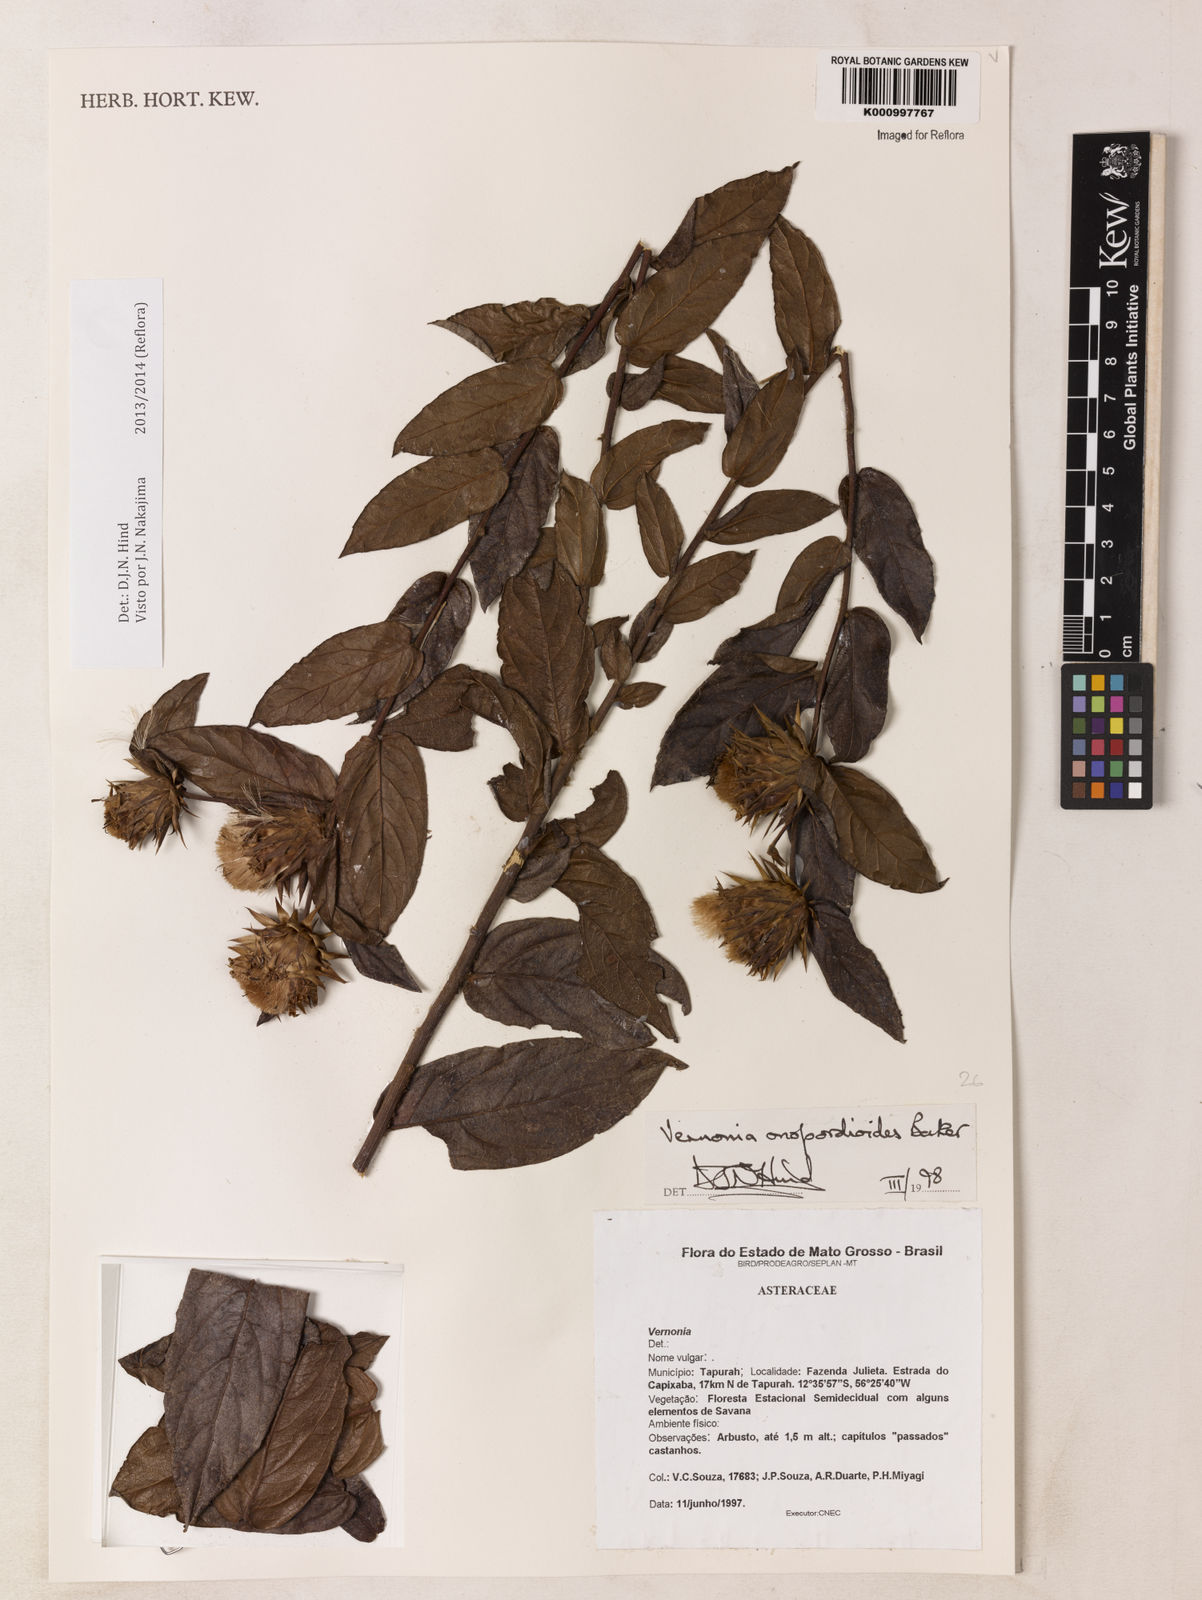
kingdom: Plantae
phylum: Tracheophyta
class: Magnoliopsida
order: Asterales
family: Asteraceae
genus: Lessingianthus
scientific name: Lessingianthus onopordioides
